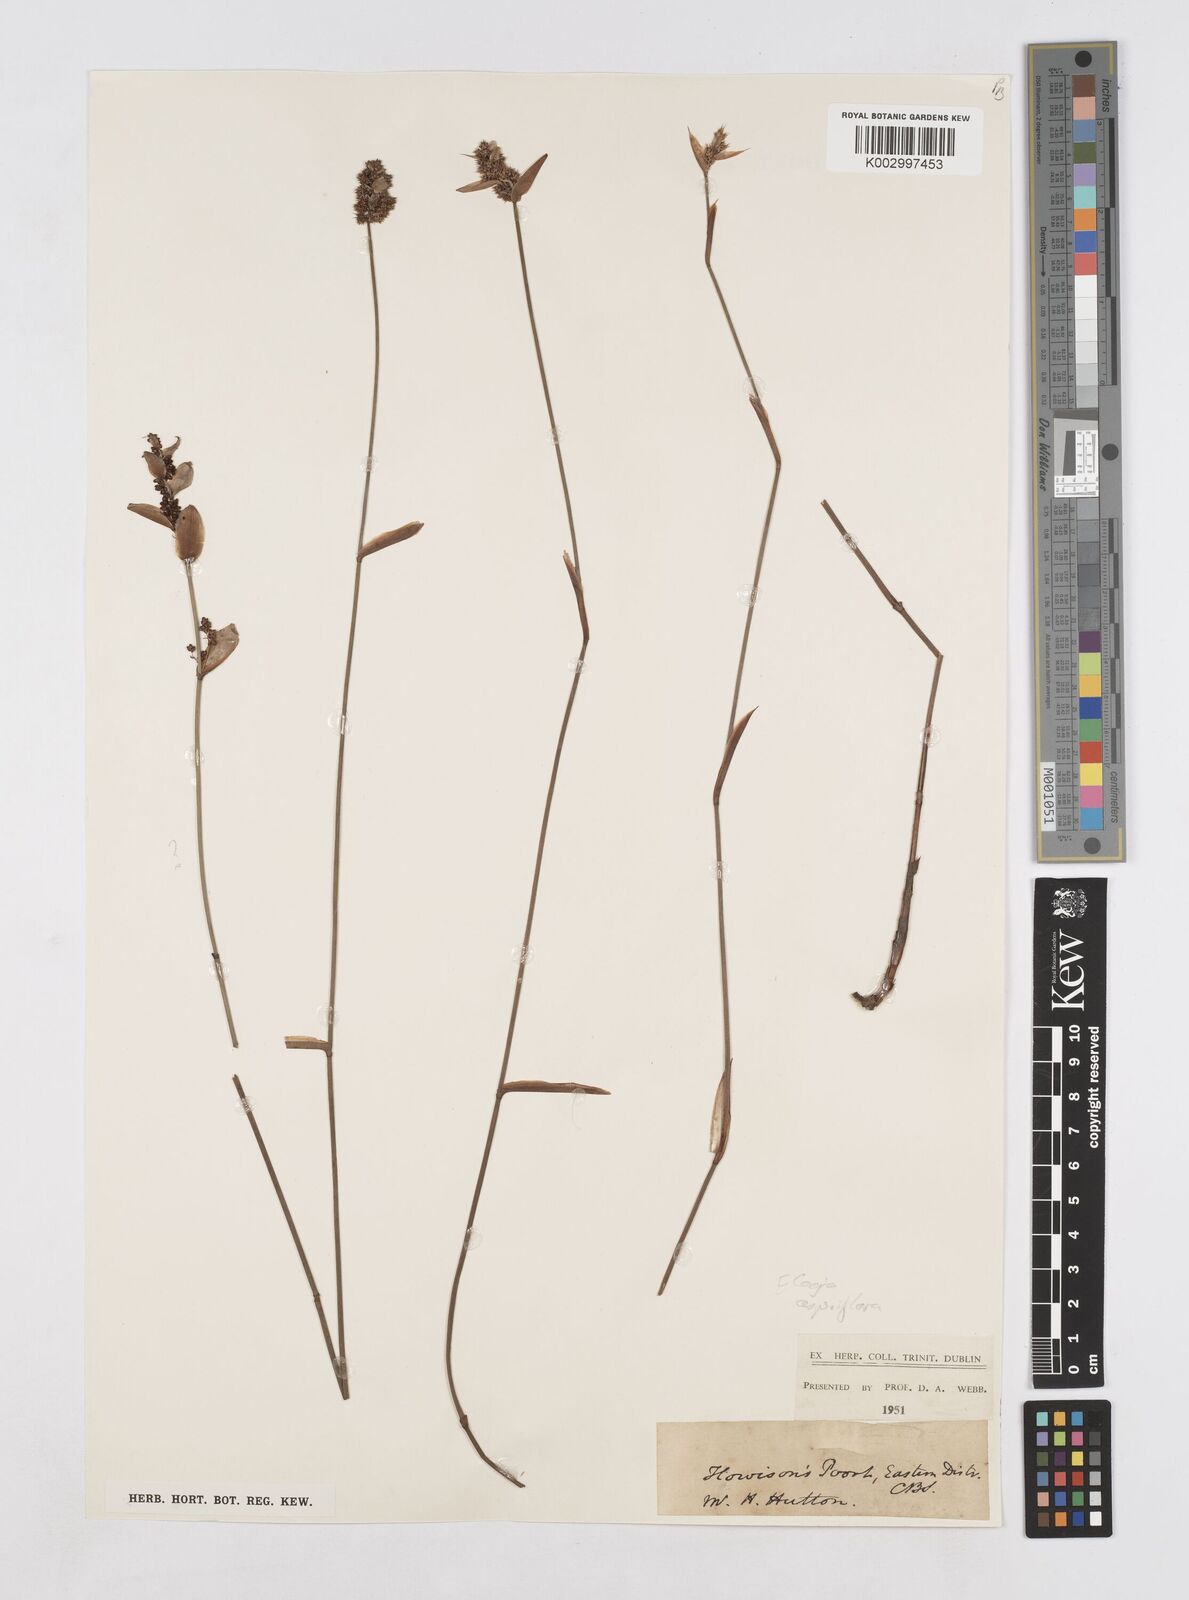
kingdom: Plantae
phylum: Tracheophyta
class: Liliopsida
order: Poales
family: Restionaceae
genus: Elegia
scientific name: Elegia asperiflora
